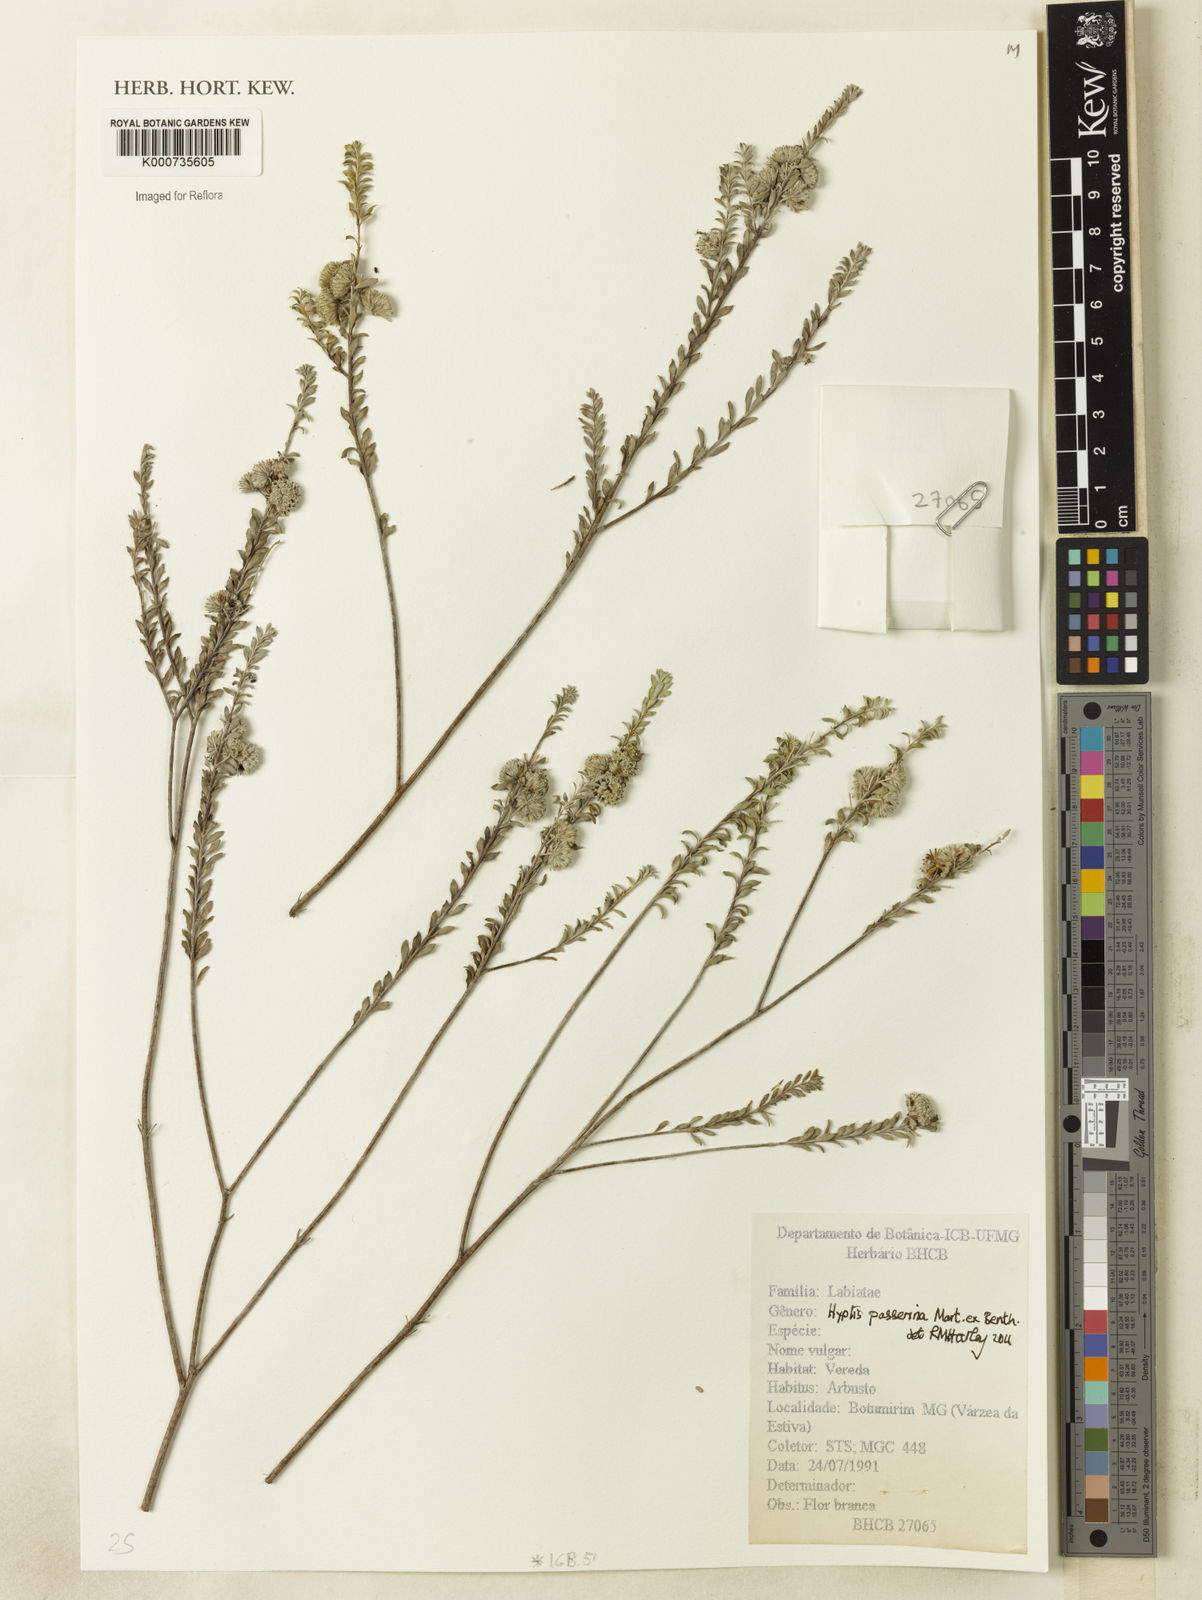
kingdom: Plantae
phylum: Tracheophyta
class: Magnoliopsida
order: Lamiales
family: Lamiaceae
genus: Hyptis
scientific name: Hyptis passerina
